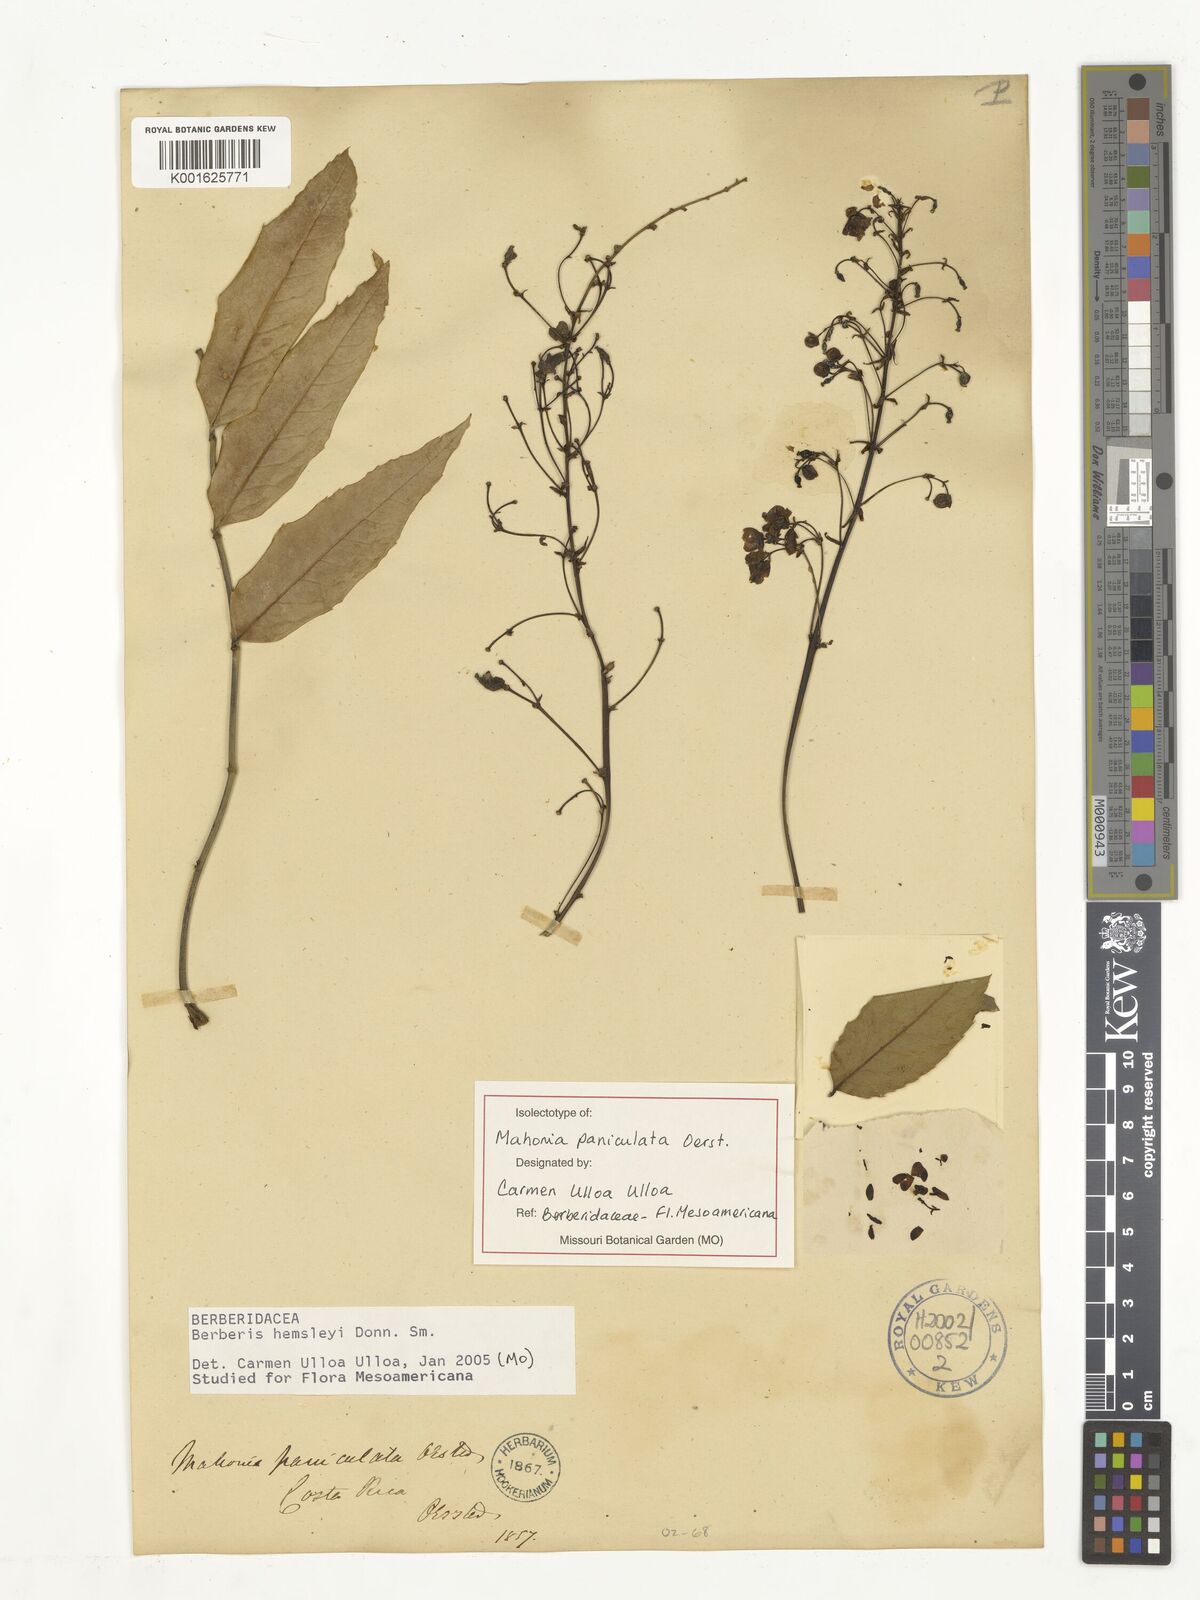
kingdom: Plantae
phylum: Tracheophyta
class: Magnoliopsida
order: Ranunculales
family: Berberidaceae
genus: Berberis
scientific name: Berberis hemsleyi
